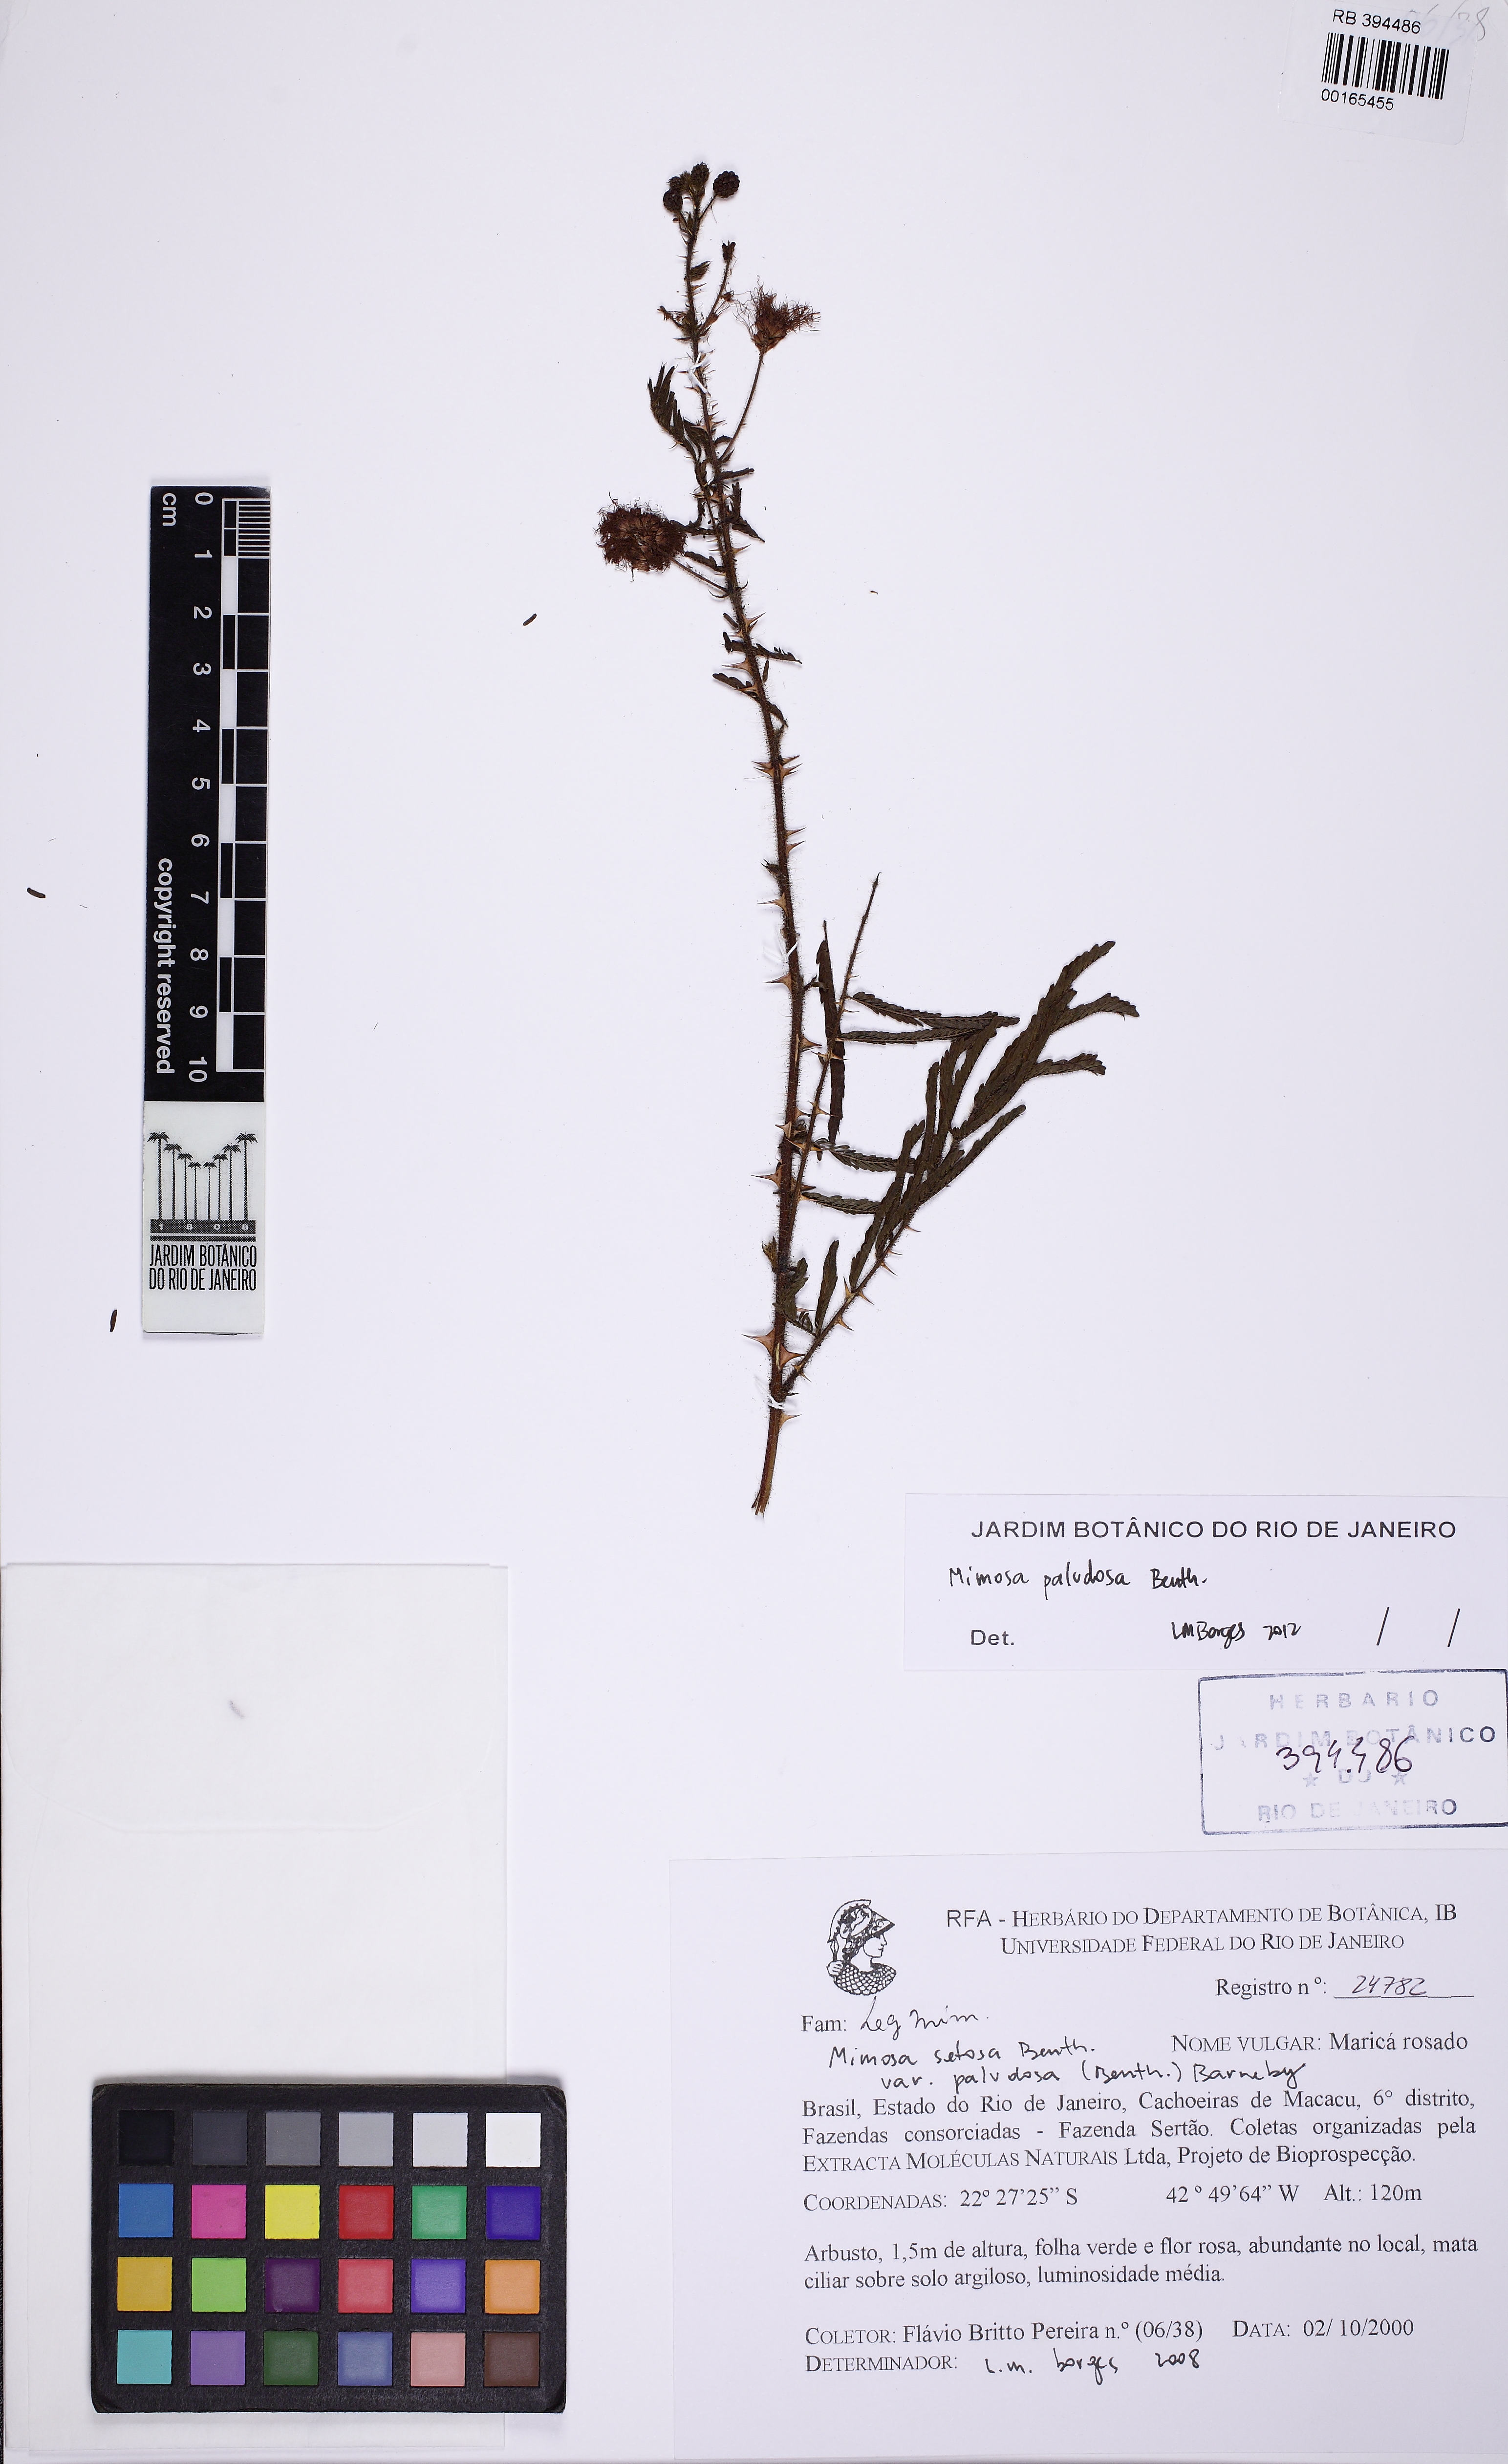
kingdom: Plantae
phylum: Tracheophyta
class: Magnoliopsida
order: Fabales
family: Fabaceae
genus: Mimosa
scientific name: Mimosa paludosa
